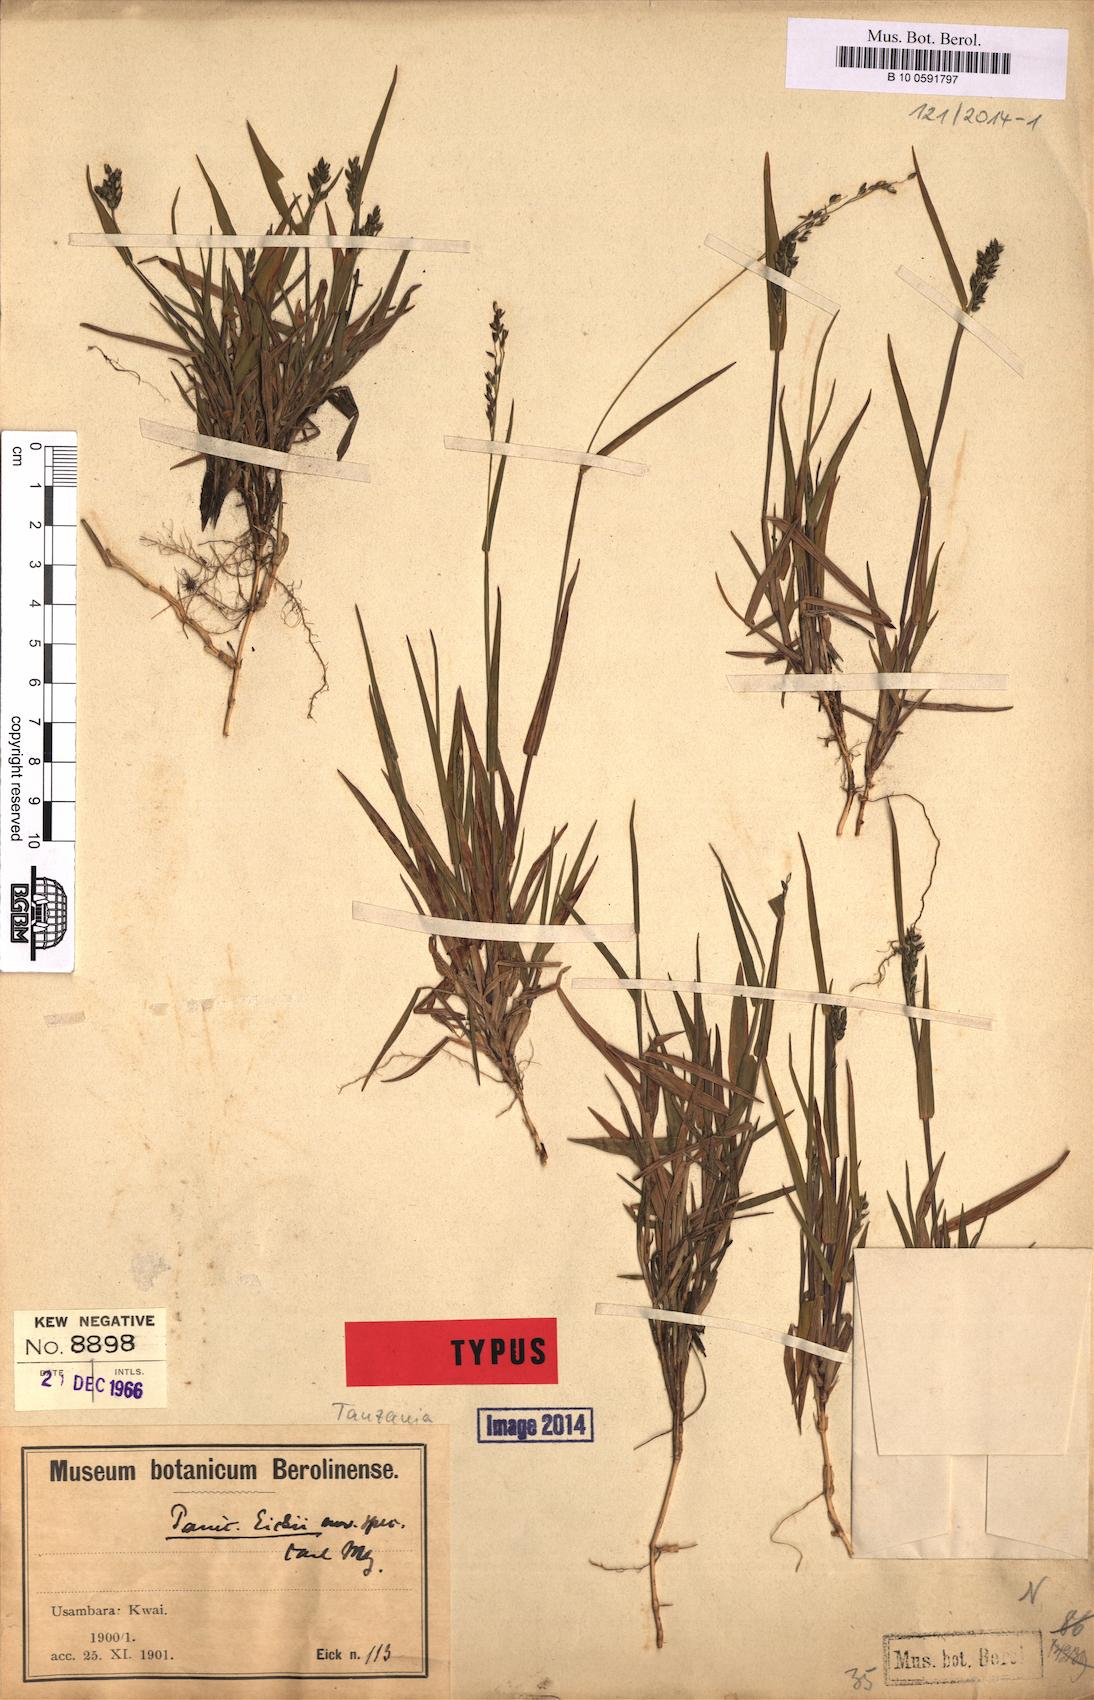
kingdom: Plantae
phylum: Tracheophyta
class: Liliopsida
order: Poales
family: Poaceae
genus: Panicum
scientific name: Panicum eickii
